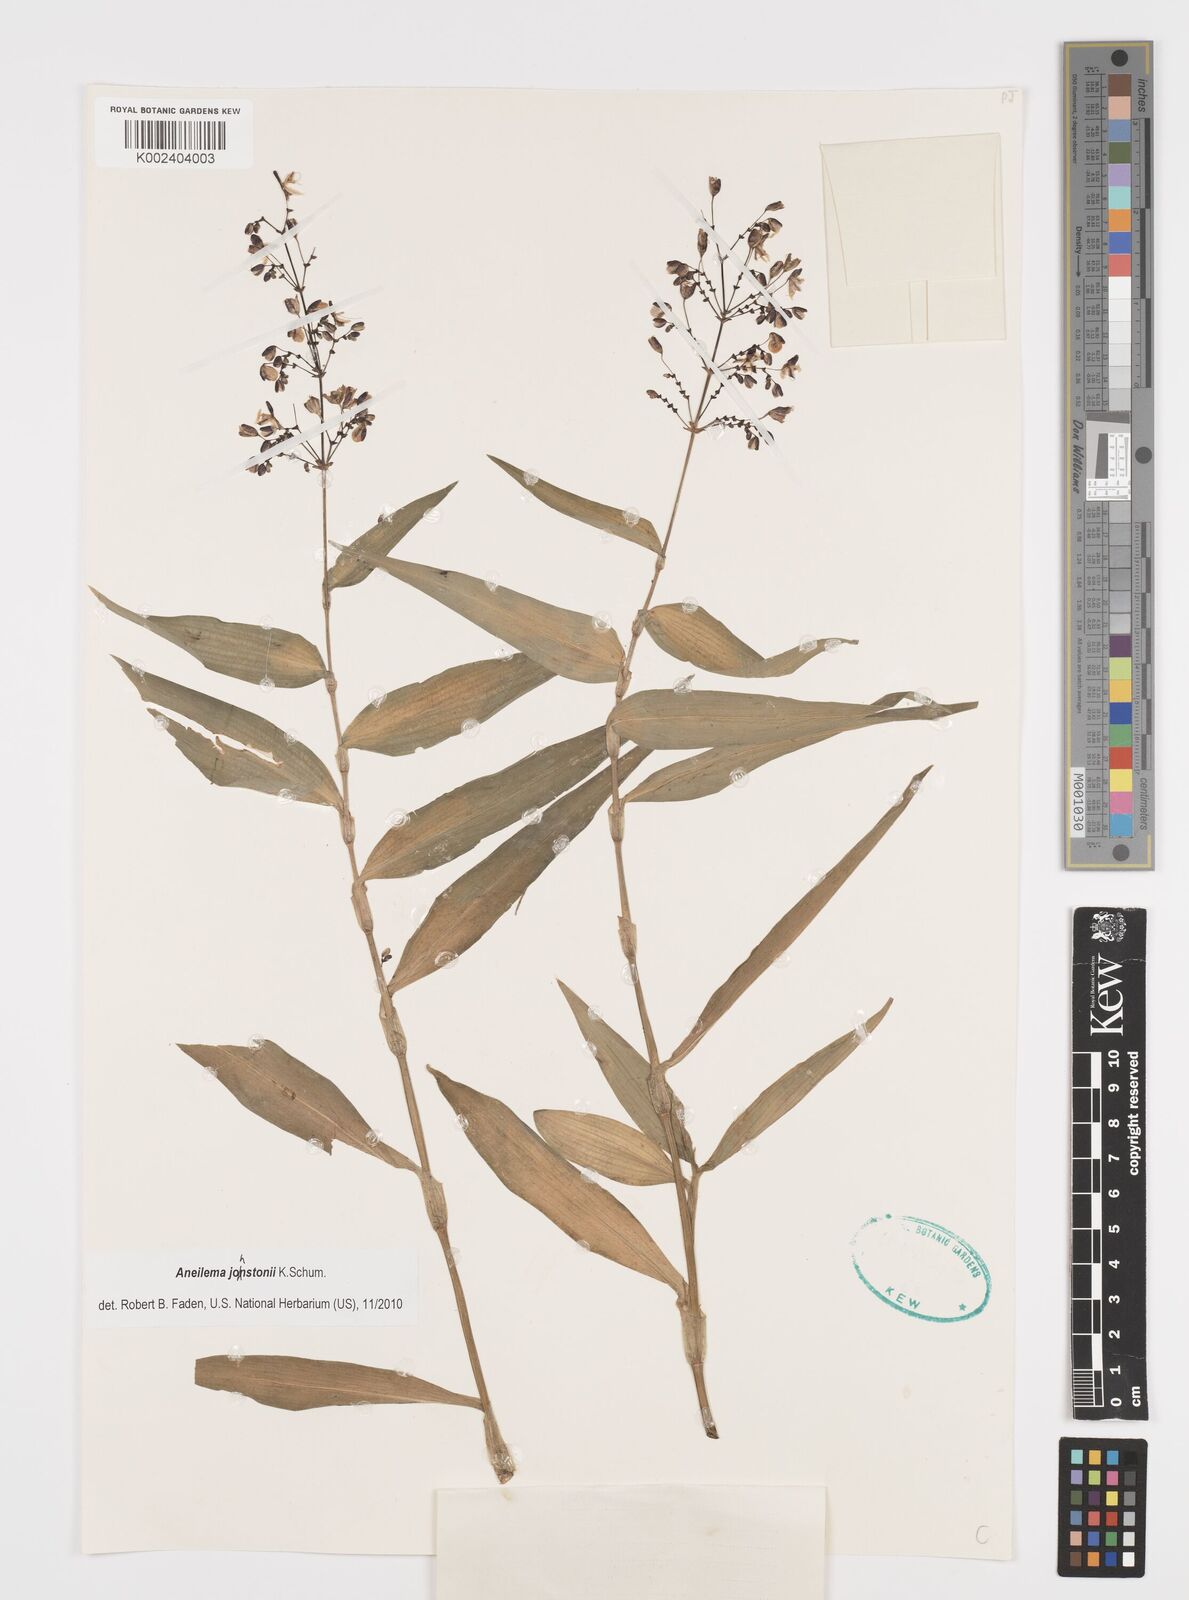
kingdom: Plantae
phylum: Tracheophyta
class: Liliopsida
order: Commelinales
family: Commelinaceae
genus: Aneilema
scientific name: Aneilema johnstonii
